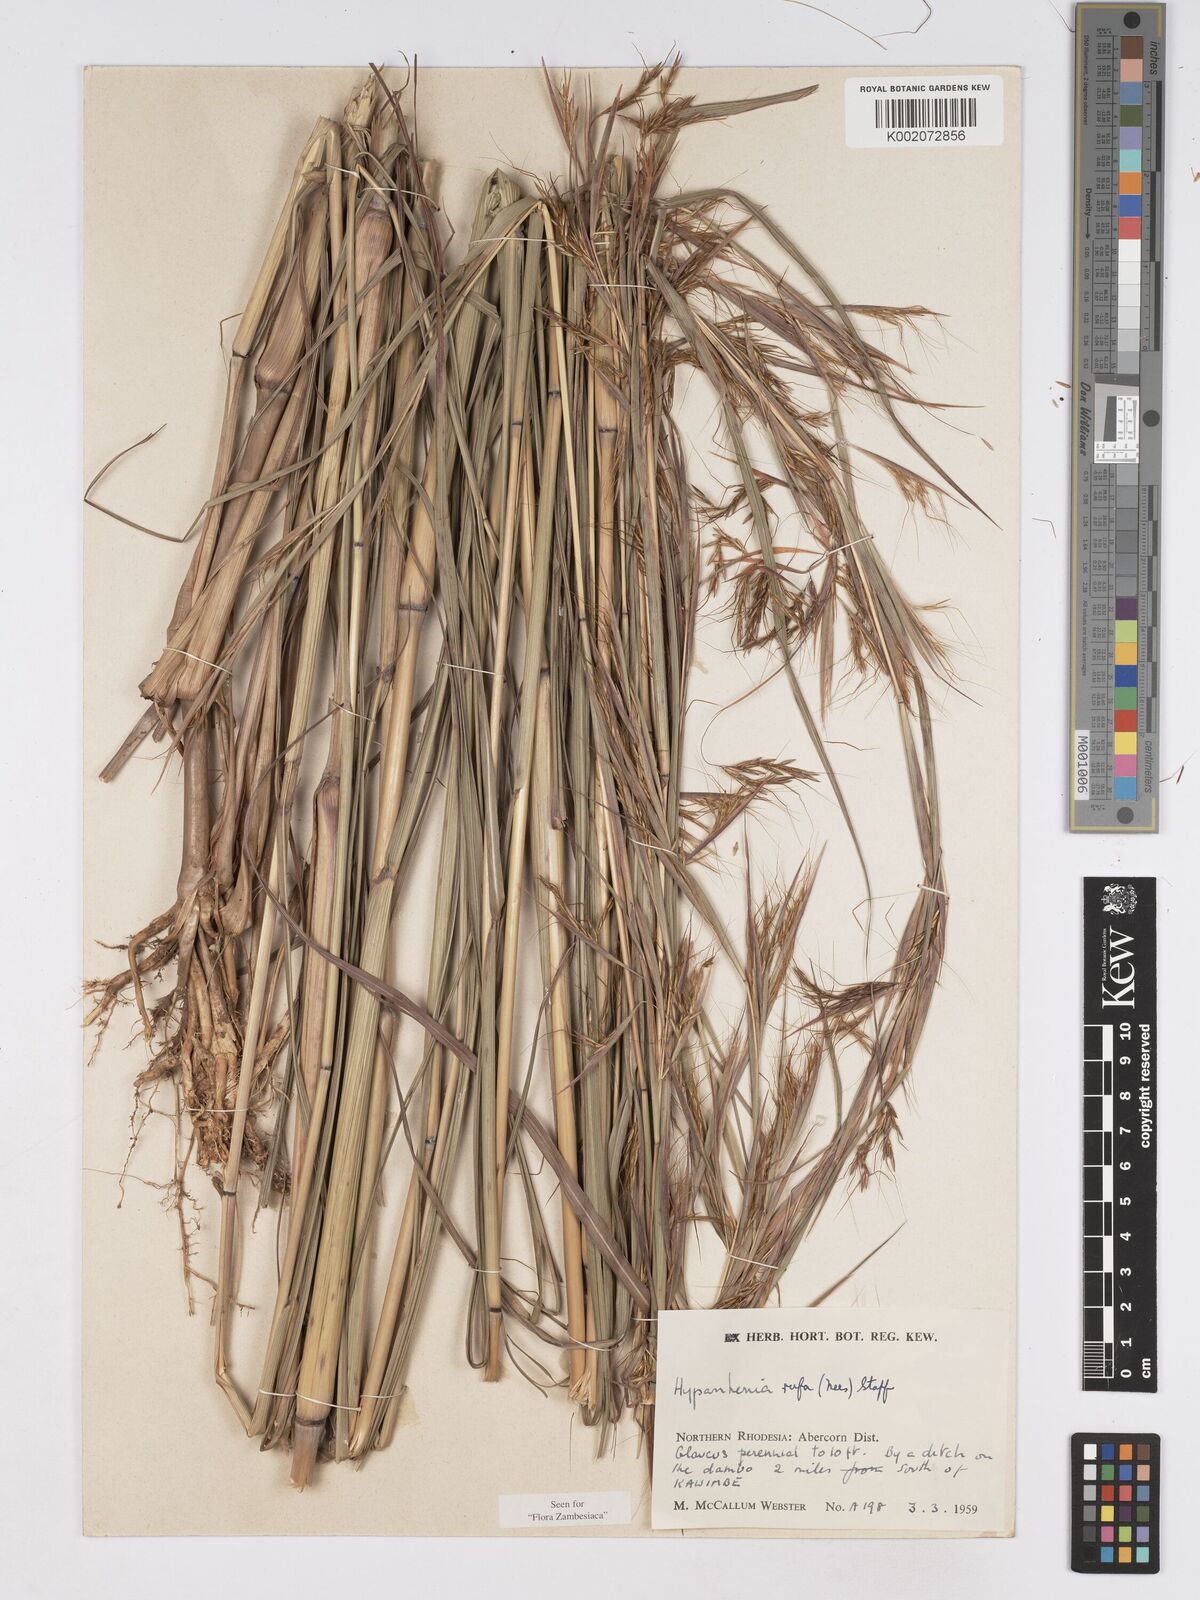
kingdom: Plantae
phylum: Tracheophyta
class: Liliopsida
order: Poales
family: Poaceae
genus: Hyparrhenia
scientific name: Hyparrhenia rufa
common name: Jaraguagrass
